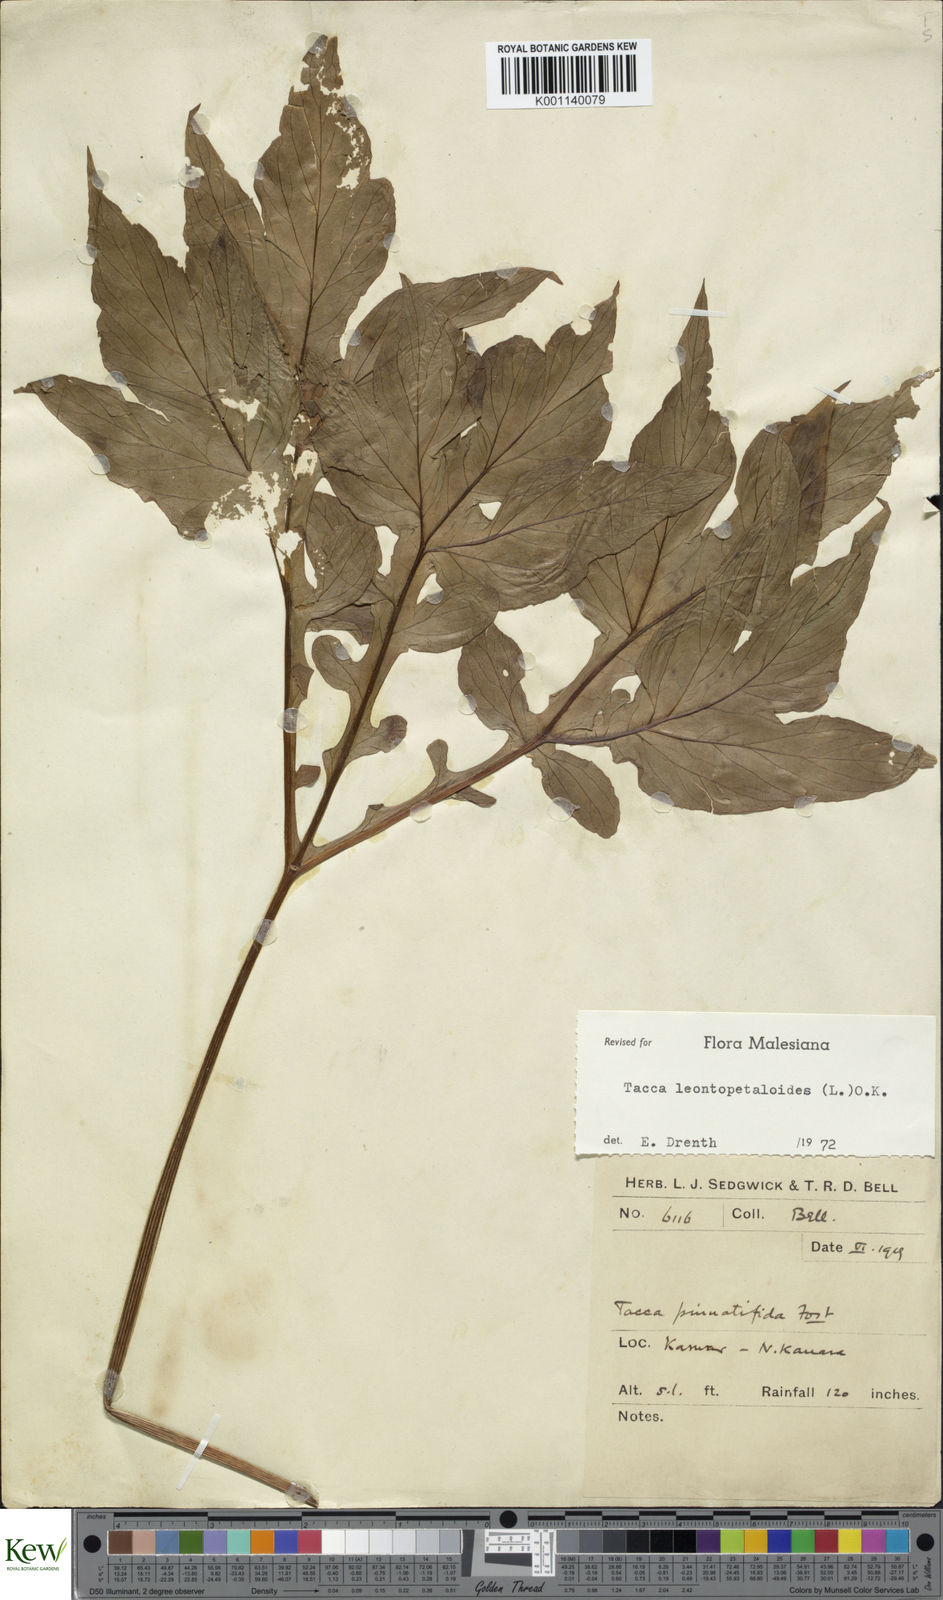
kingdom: Plantae
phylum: Tracheophyta
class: Liliopsida
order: Dioscoreales
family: Dioscoreaceae
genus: Tacca
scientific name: Tacca leontopetaloides
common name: Arrowroot
